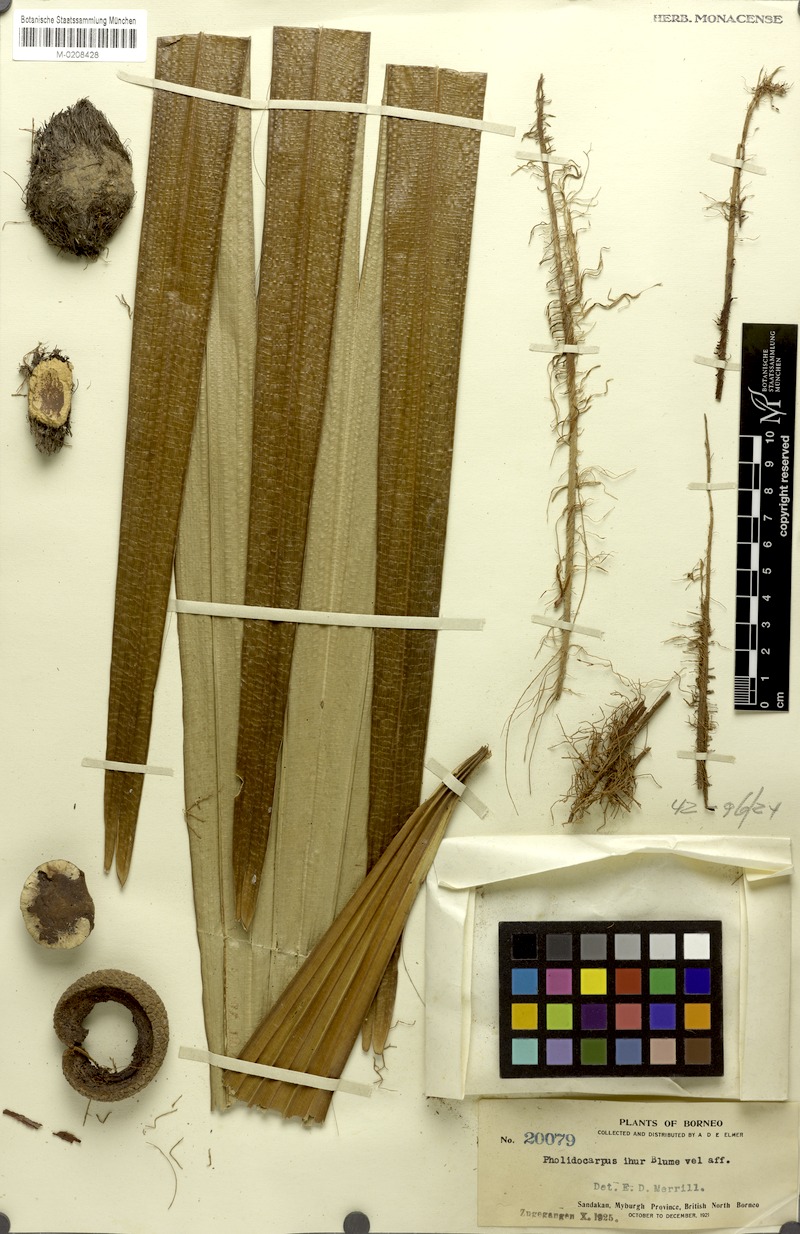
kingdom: Plantae
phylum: Tracheophyta
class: Liliopsida
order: Arecales
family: Arecaceae
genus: Pholidocarpus
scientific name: Pholidocarpus ihur
